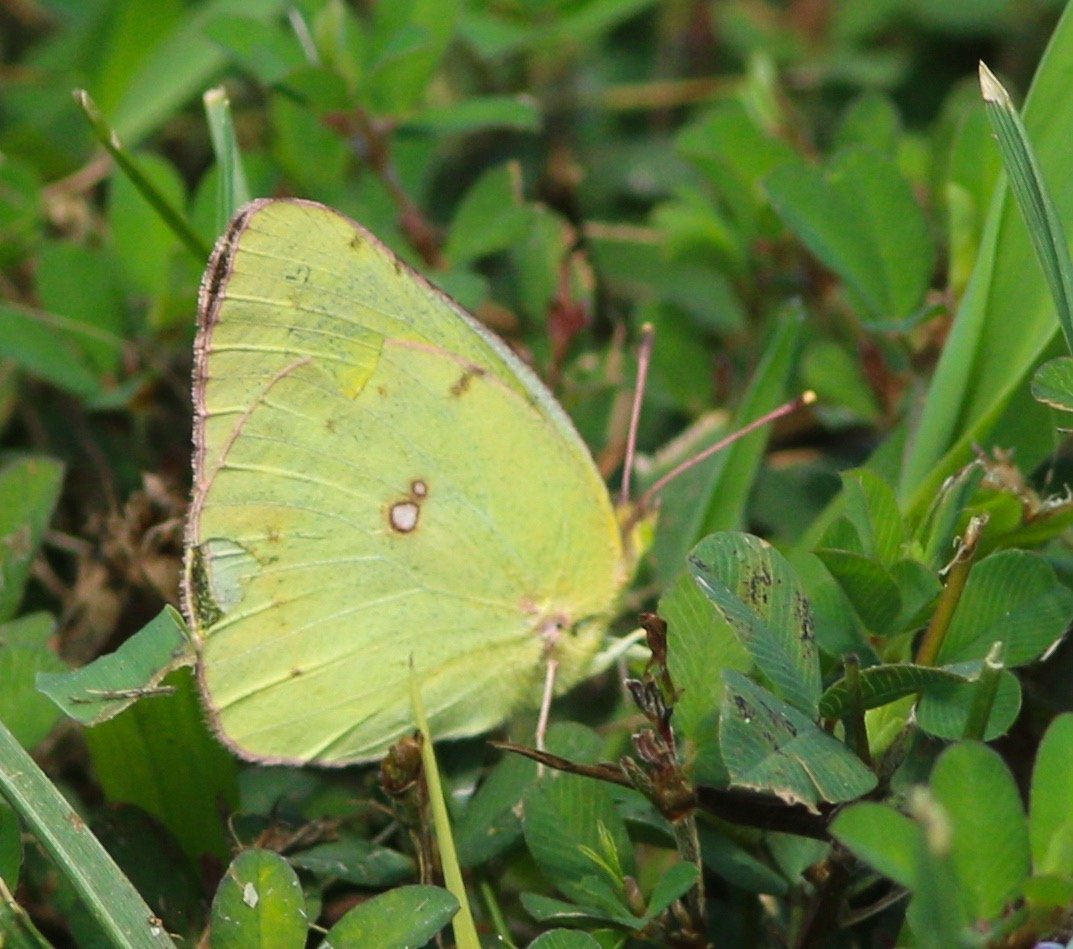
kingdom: Animalia
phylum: Arthropoda
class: Insecta
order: Lepidoptera
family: Pieridae
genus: Colias
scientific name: Colias philodice
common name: Clouded Sulphur
